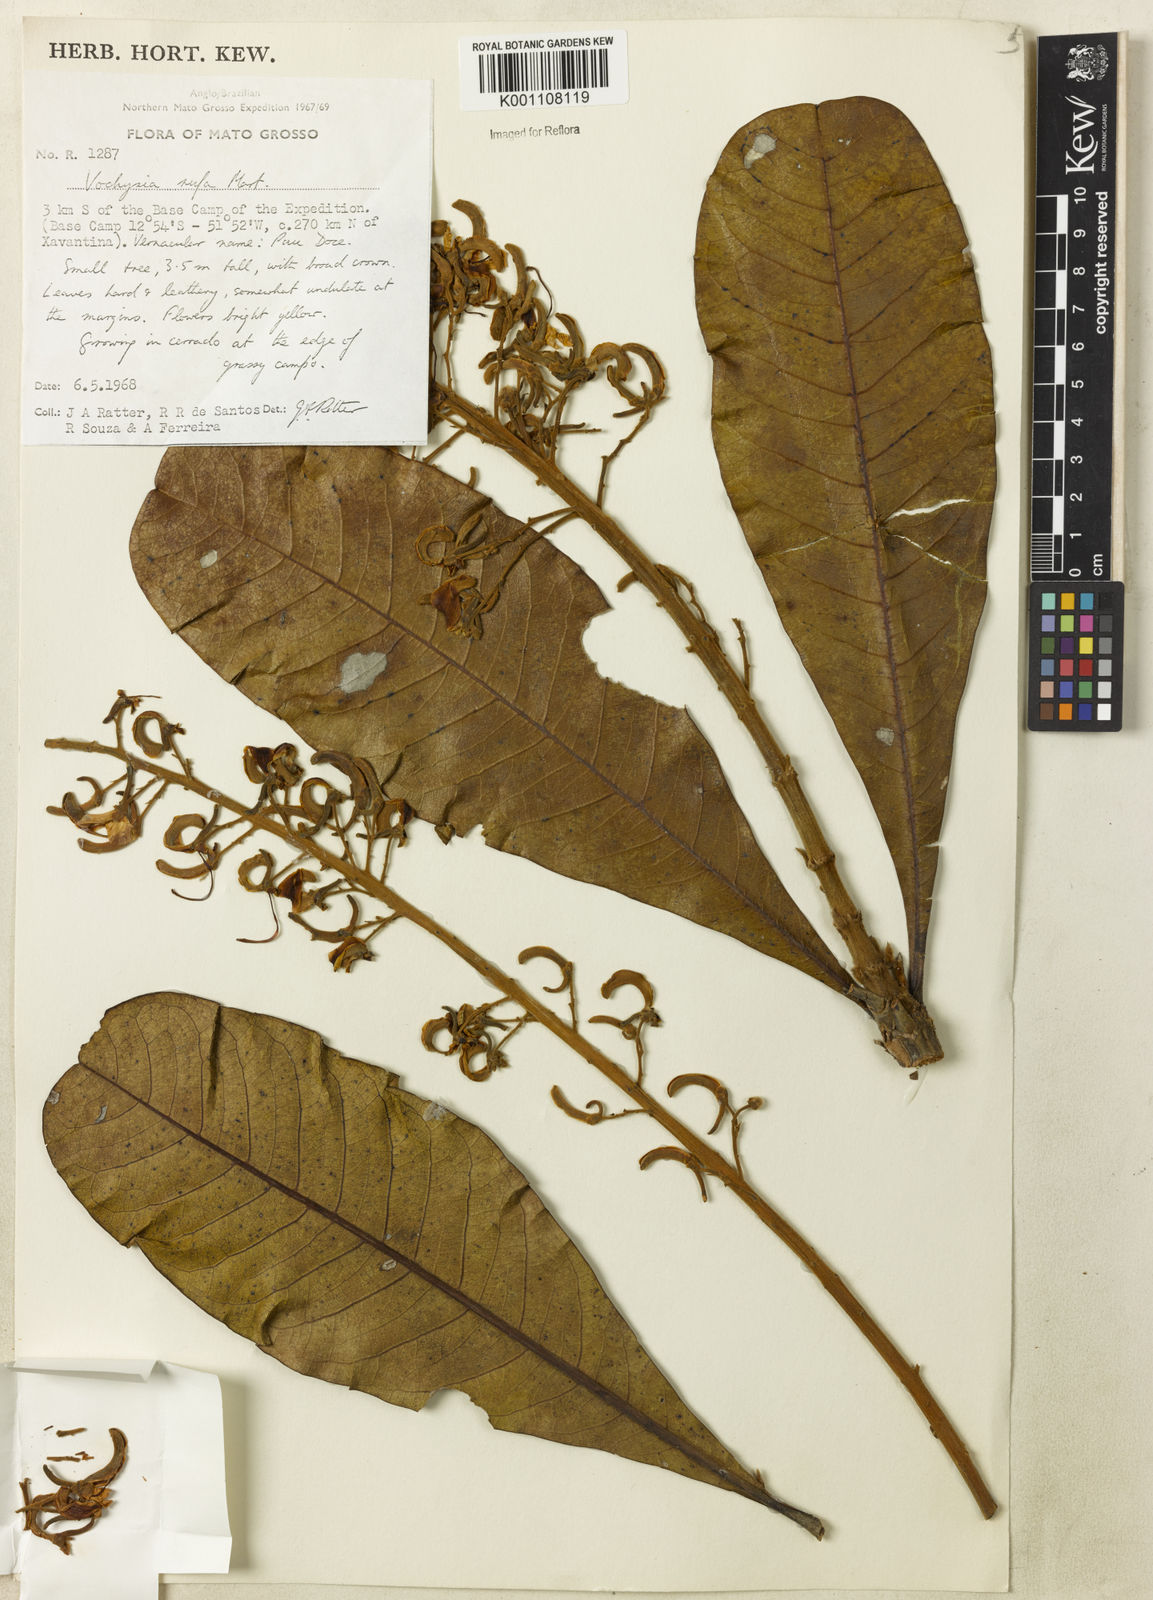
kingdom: Plantae
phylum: Tracheophyta
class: Magnoliopsida
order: Myrtales
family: Vochysiaceae
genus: Vochysia
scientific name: Vochysia rufa
